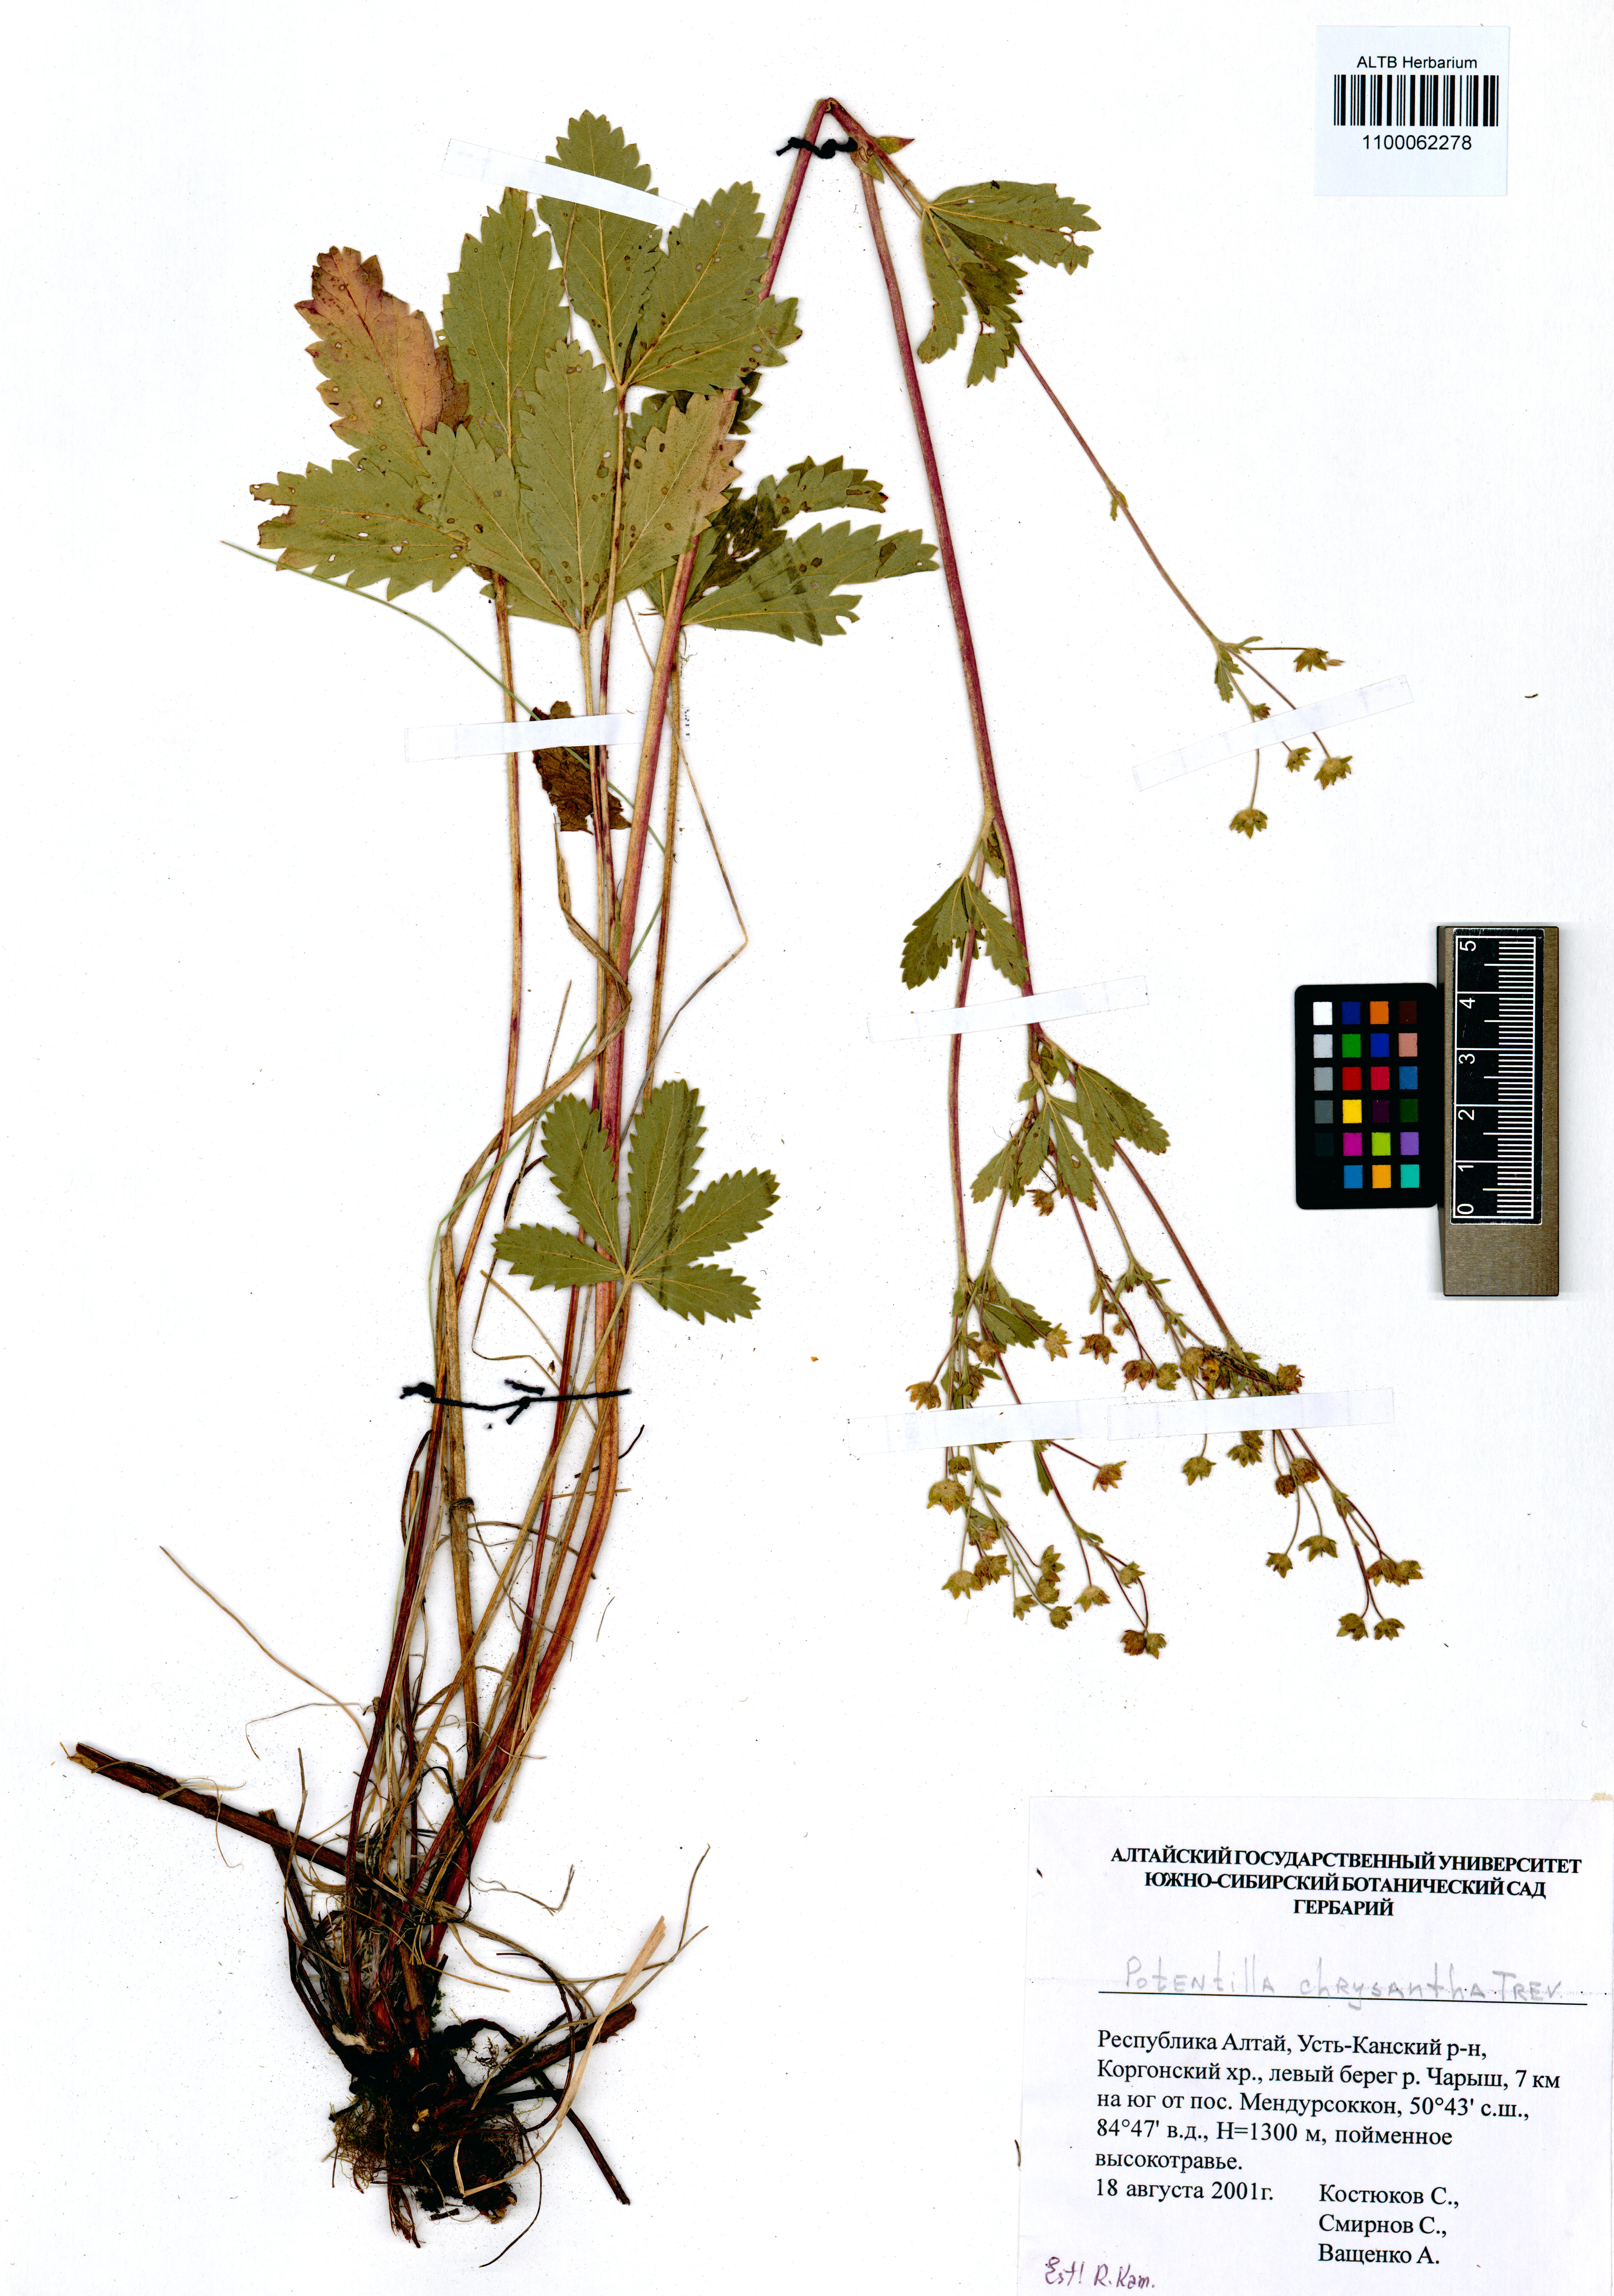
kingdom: Plantae
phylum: Tracheophyta
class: Magnoliopsida
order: Rosales
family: Rosaceae
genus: Potentilla
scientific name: Potentilla chrysantha
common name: Thuringian cinquefoil
